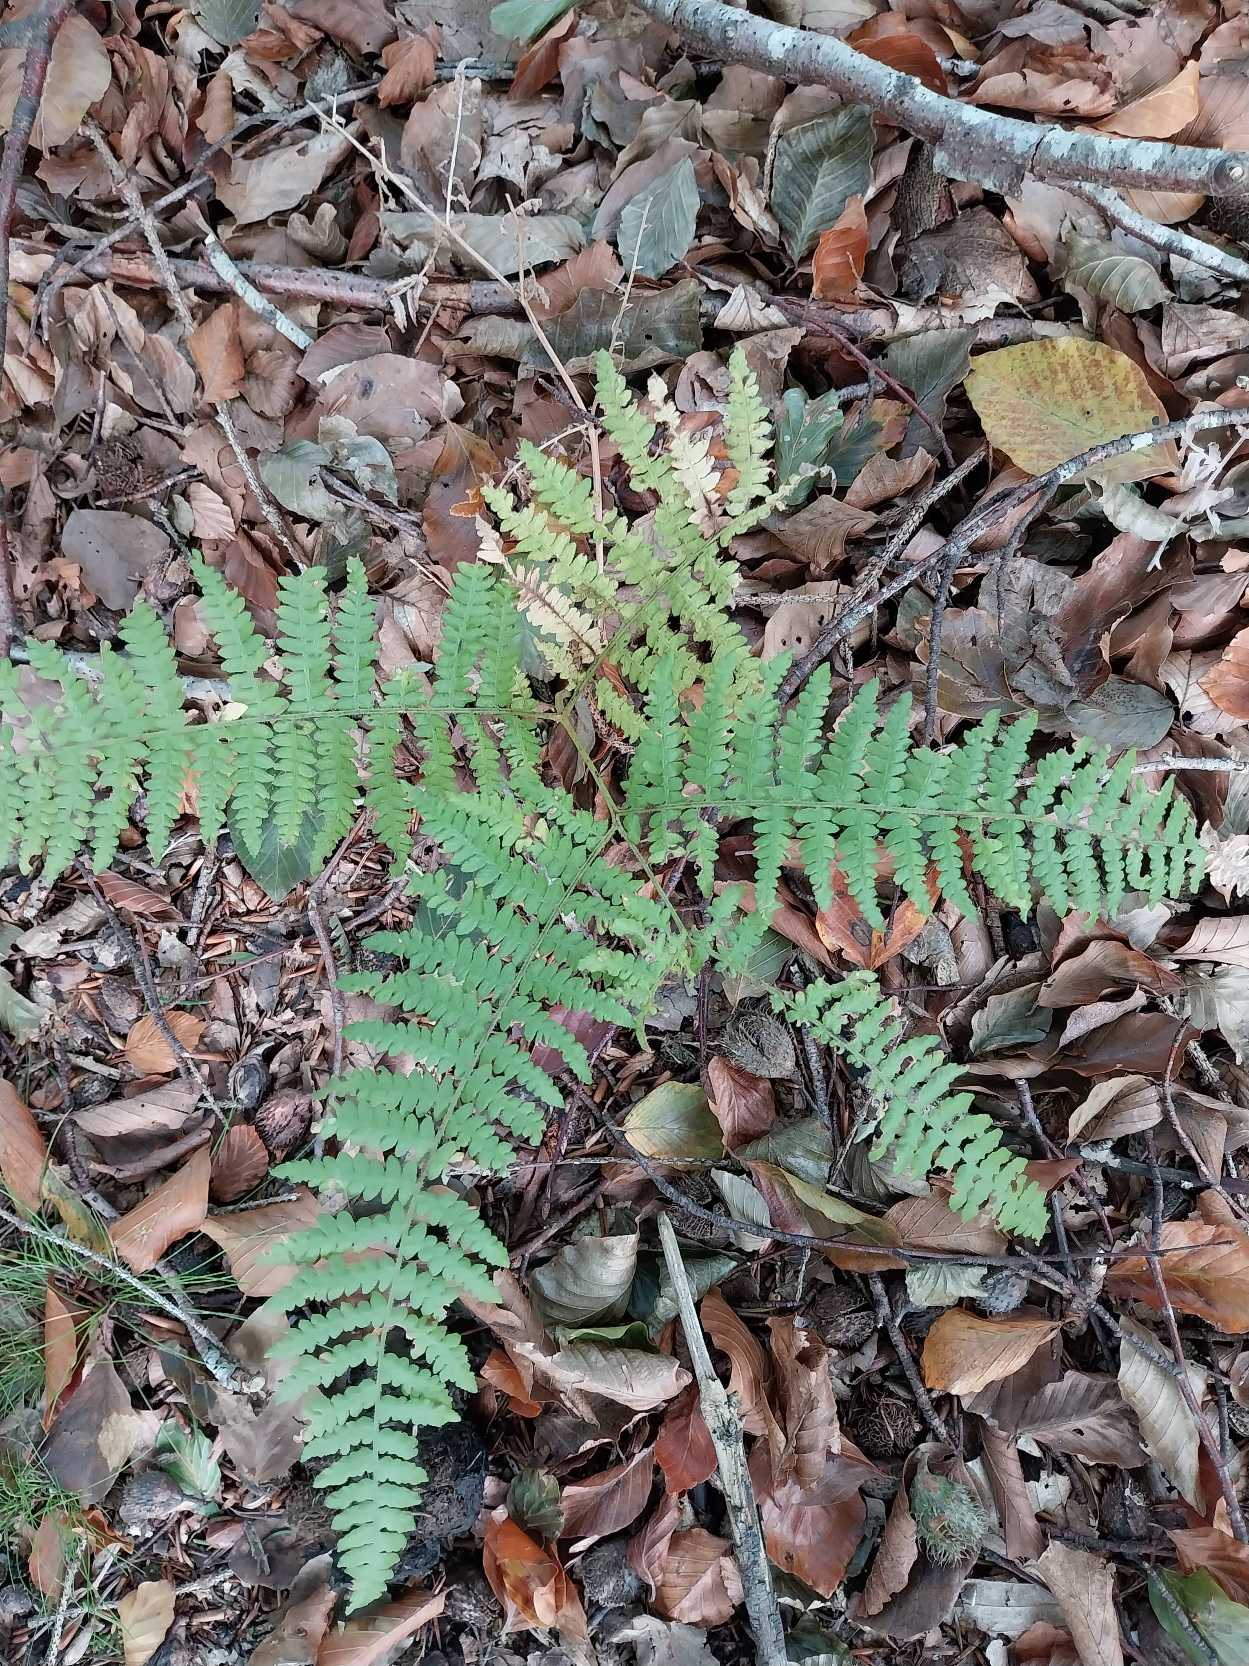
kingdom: Plantae
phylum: Tracheophyta
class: Polypodiopsida
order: Polypodiales
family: Dennstaedtiaceae
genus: Pteridium
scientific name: Pteridium aquilinum
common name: Ørnebregne
